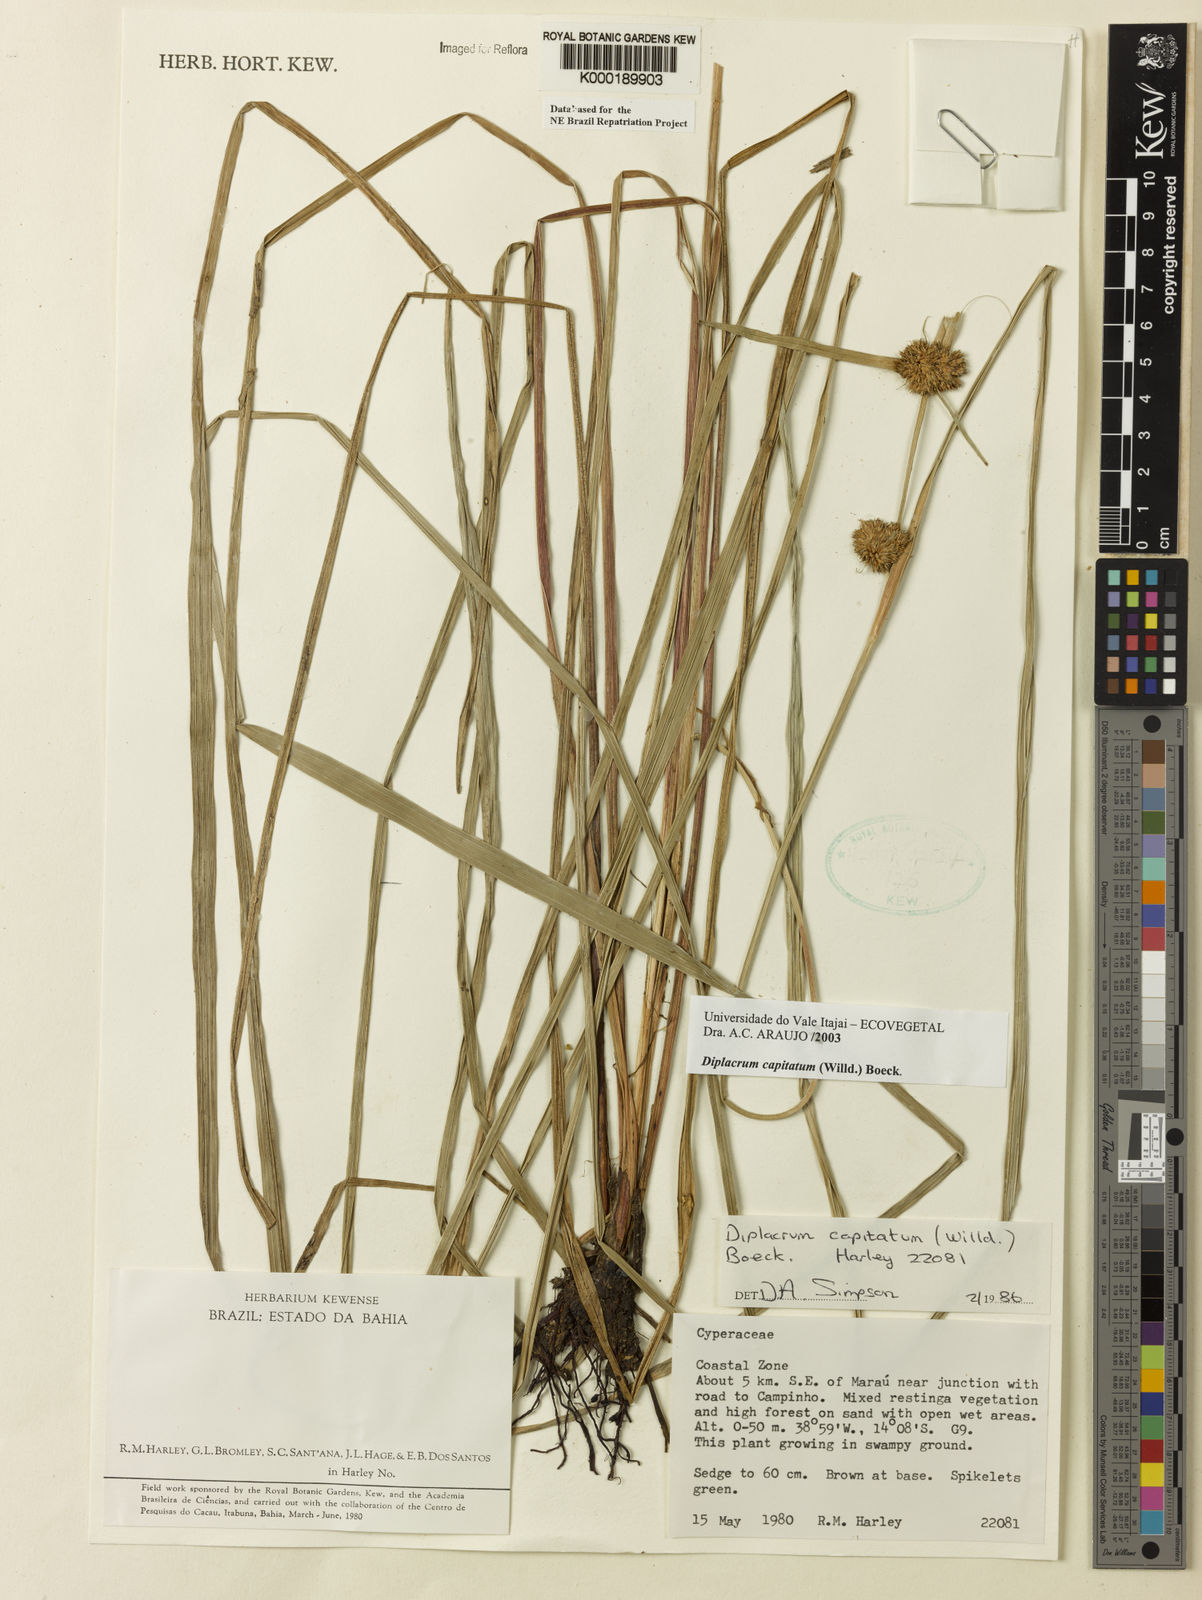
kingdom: Plantae
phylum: Tracheophyta
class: Liliopsida
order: Poales
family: Cyperaceae
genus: Diplacrum
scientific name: Diplacrum capitatum
